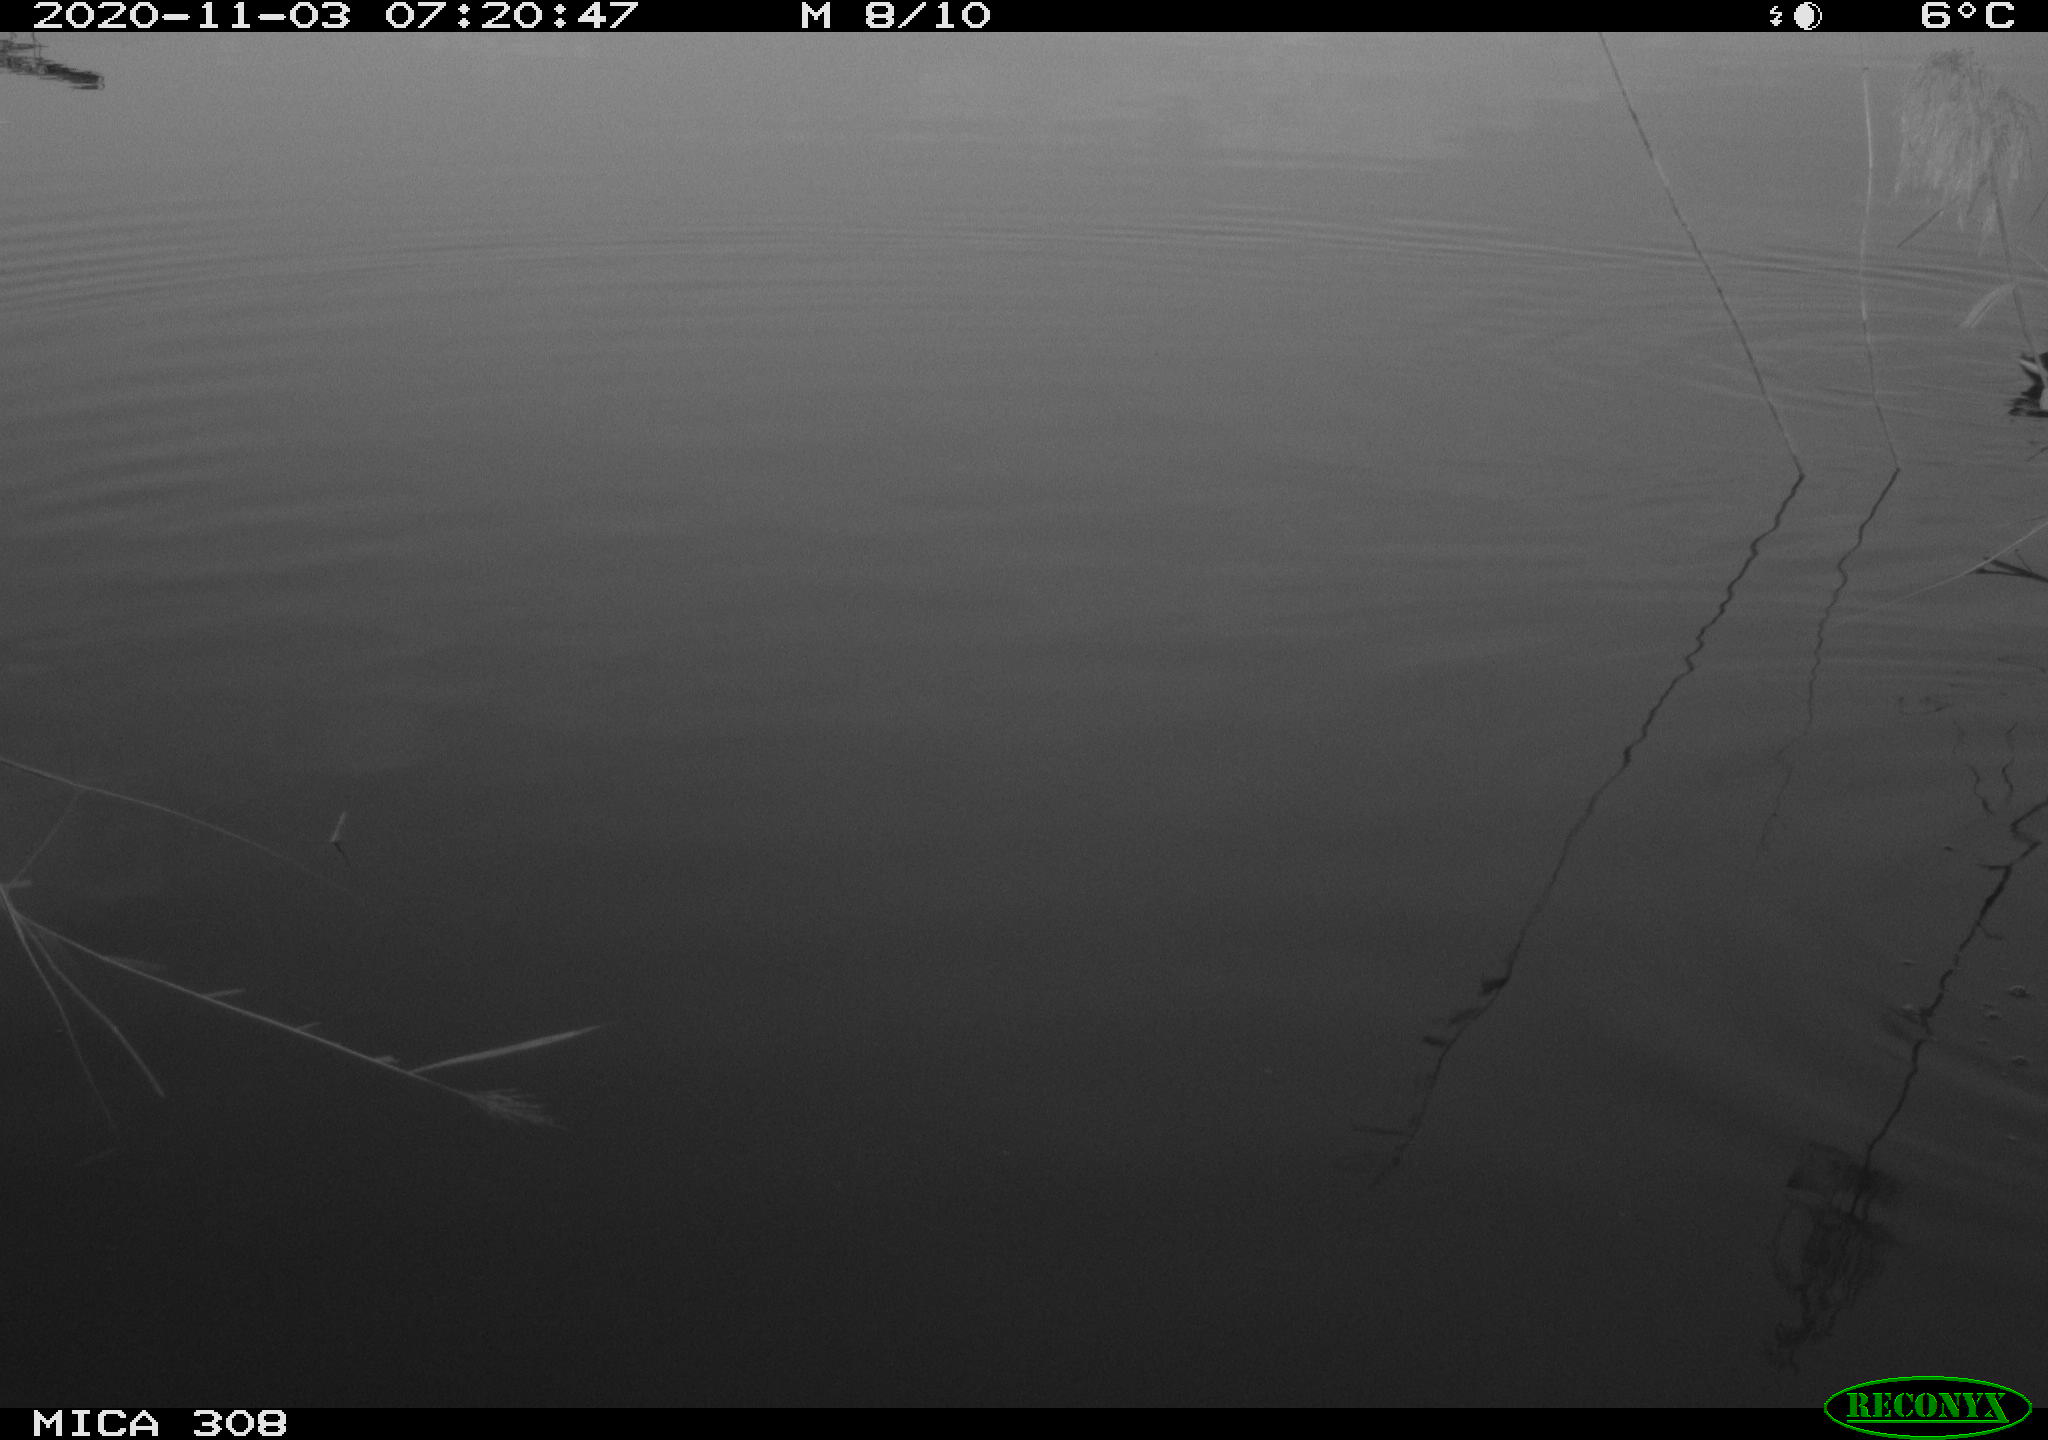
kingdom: Animalia
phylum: Chordata
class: Aves
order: Gruiformes
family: Rallidae
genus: Fulica
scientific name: Fulica atra
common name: Eurasian coot
